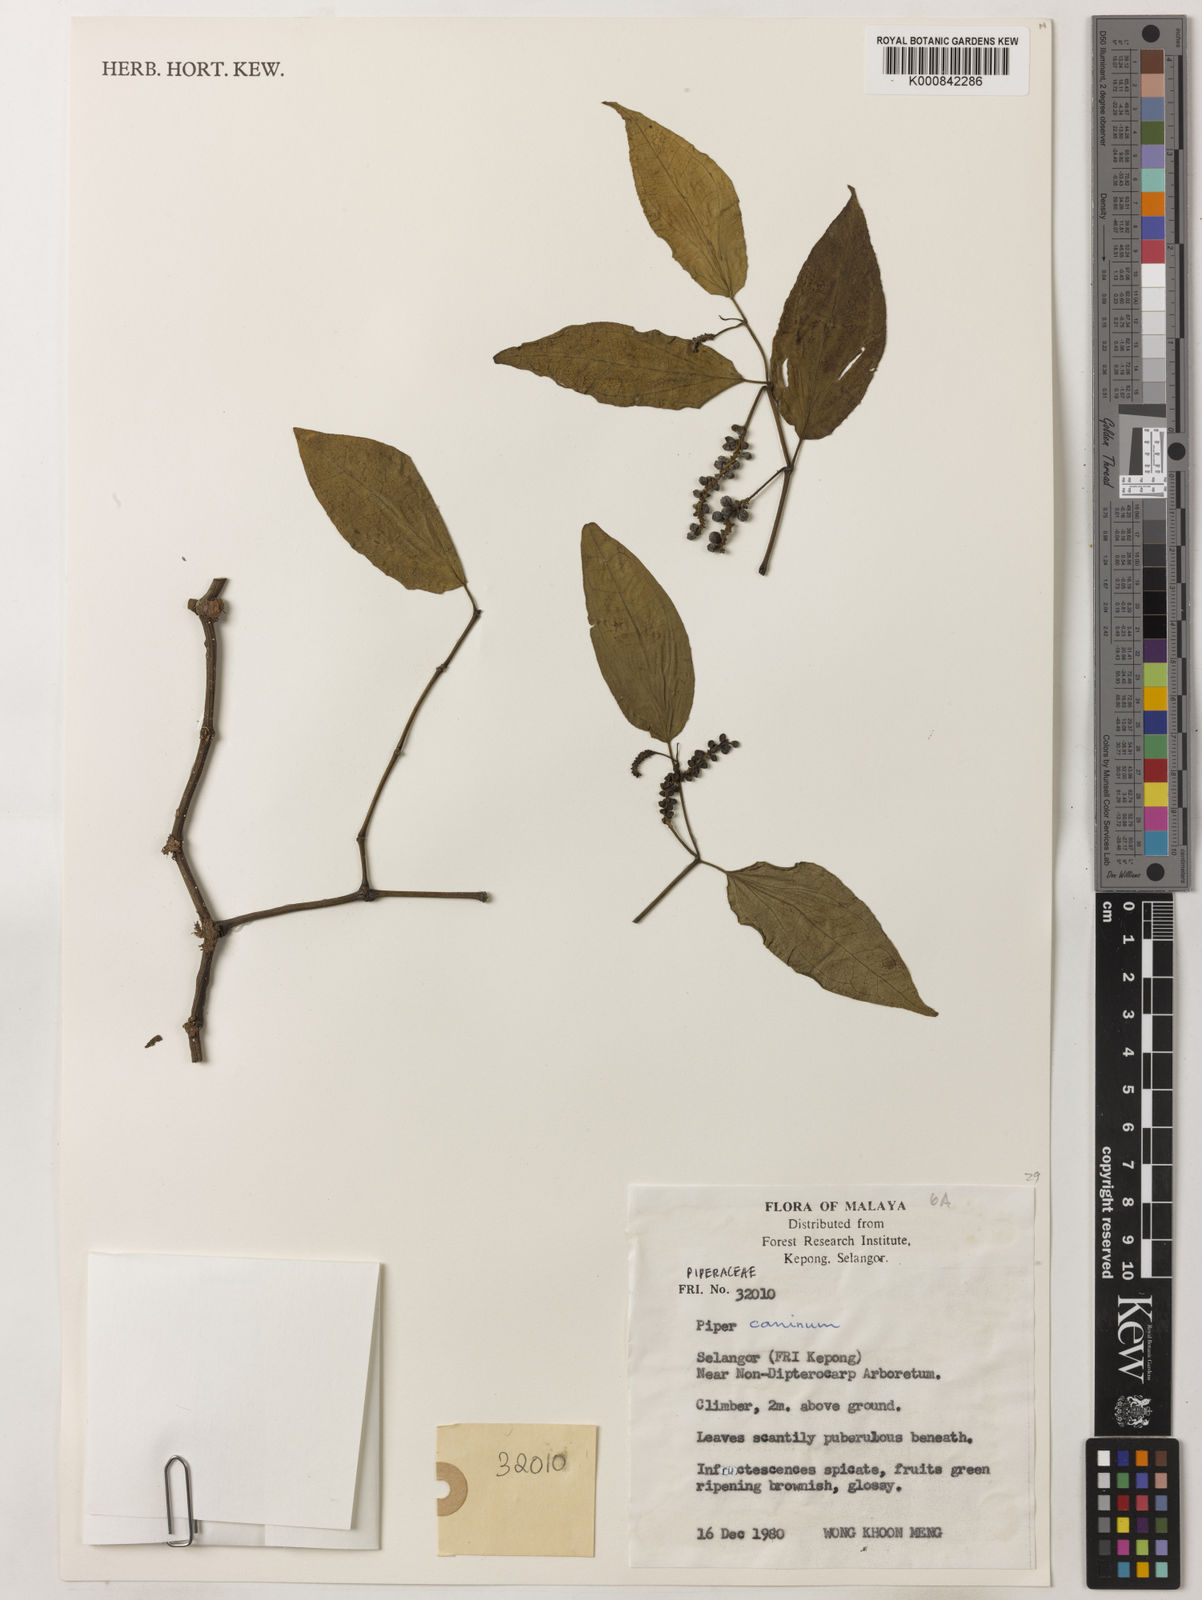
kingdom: Plantae
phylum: Tracheophyta
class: Magnoliopsida
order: Piperales
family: Piperaceae
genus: Piper
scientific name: Piper lanatum
